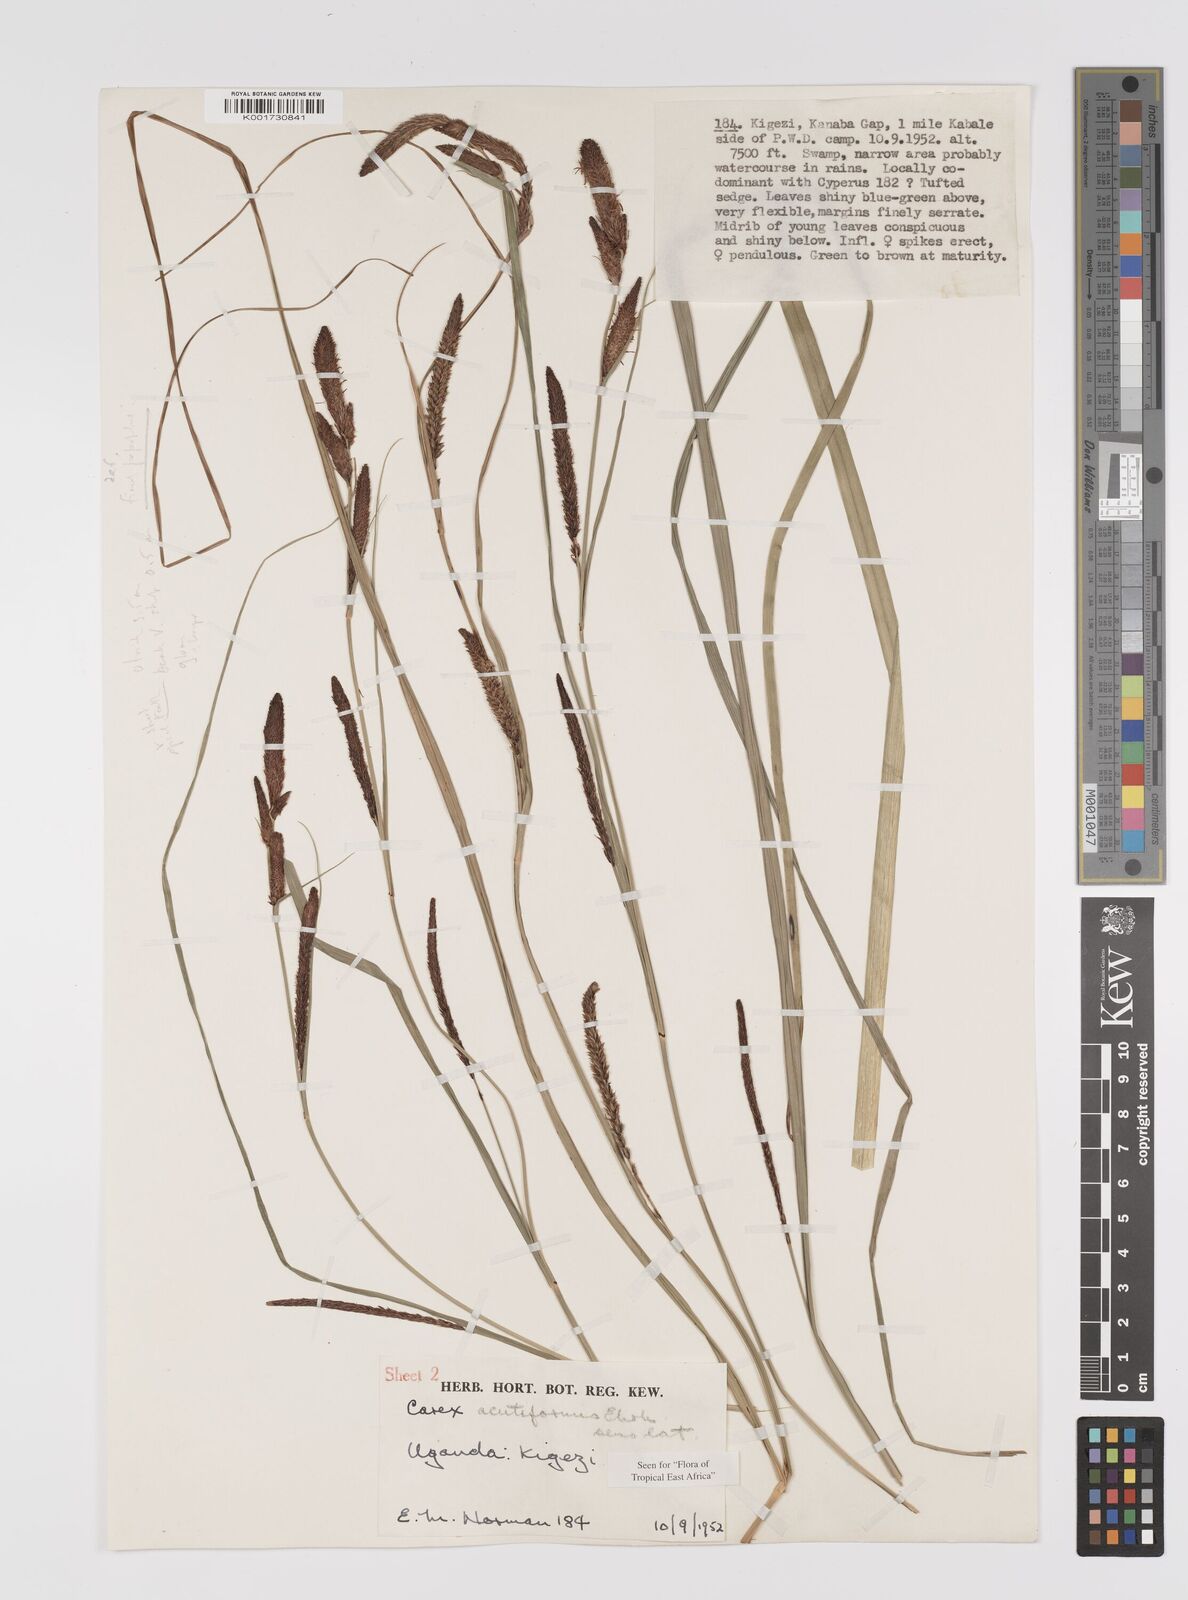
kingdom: Plantae
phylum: Tracheophyta
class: Liliopsida
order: Poales
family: Cyperaceae
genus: Carex
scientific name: Carex acutiformis
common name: Lesser pond-sedge
